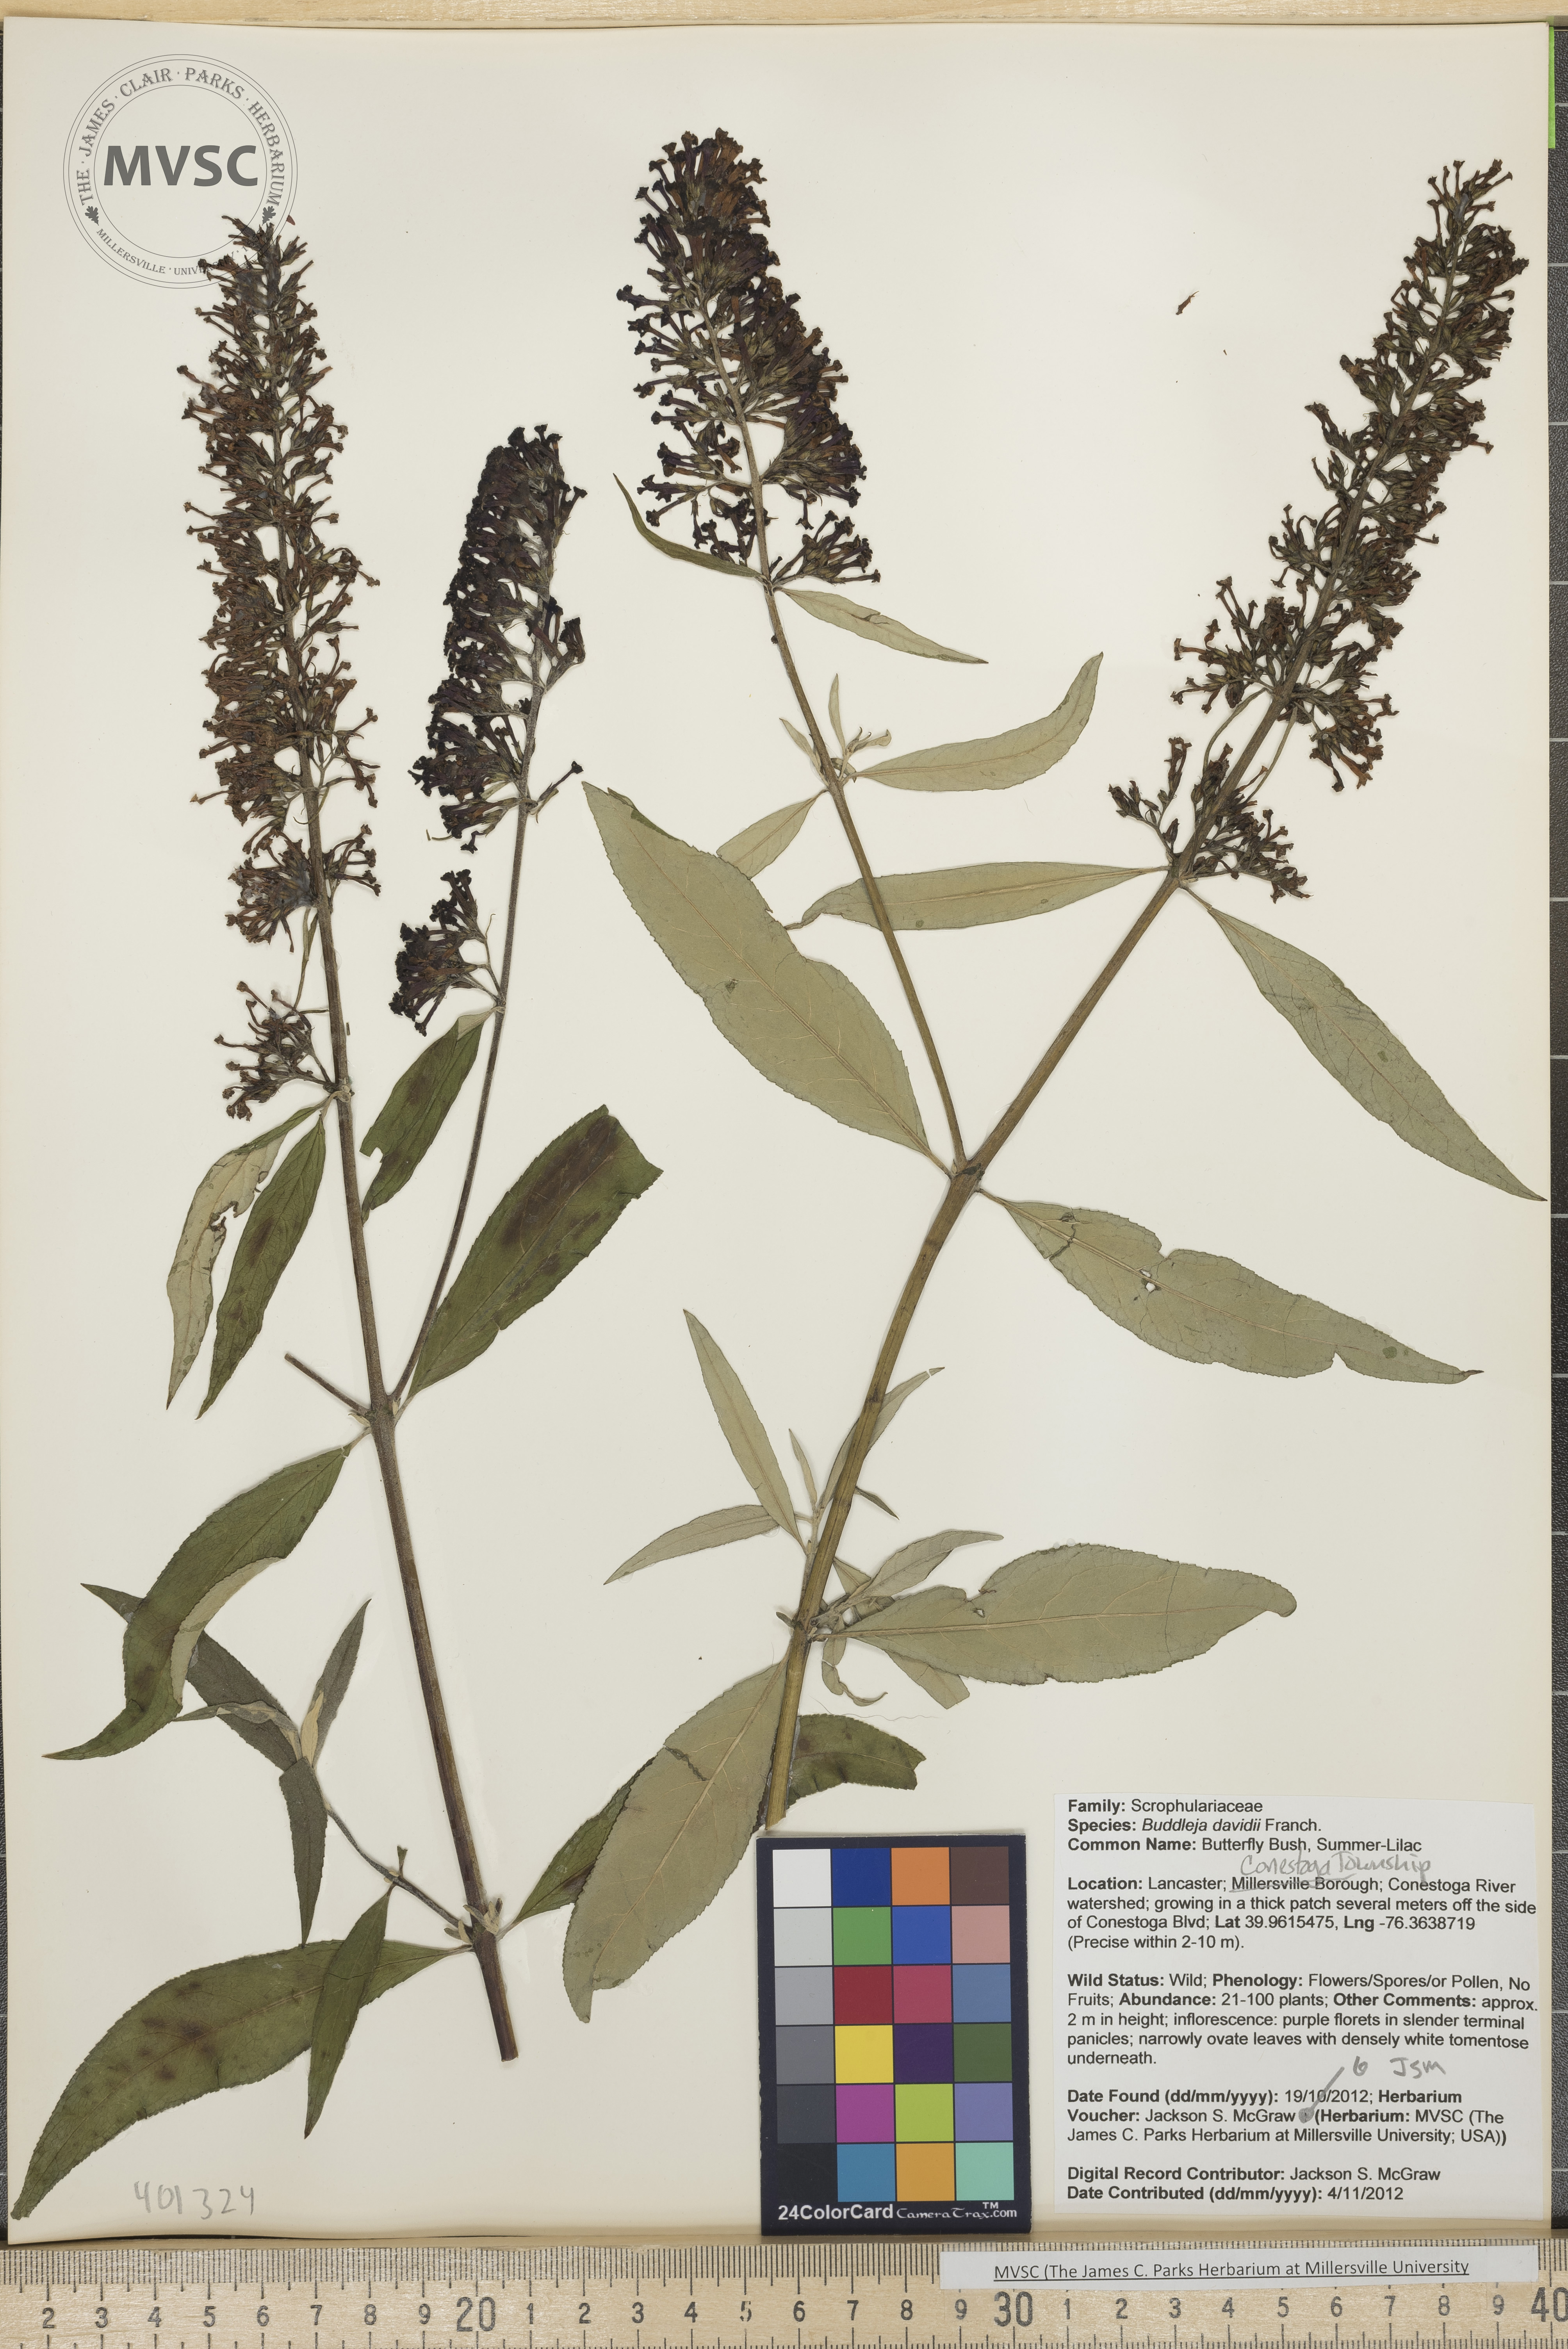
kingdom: Plantae
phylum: Tracheophyta
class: Magnoliopsida
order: Lamiales
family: Scrophulariaceae
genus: Buddleja
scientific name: Buddleja davidii
